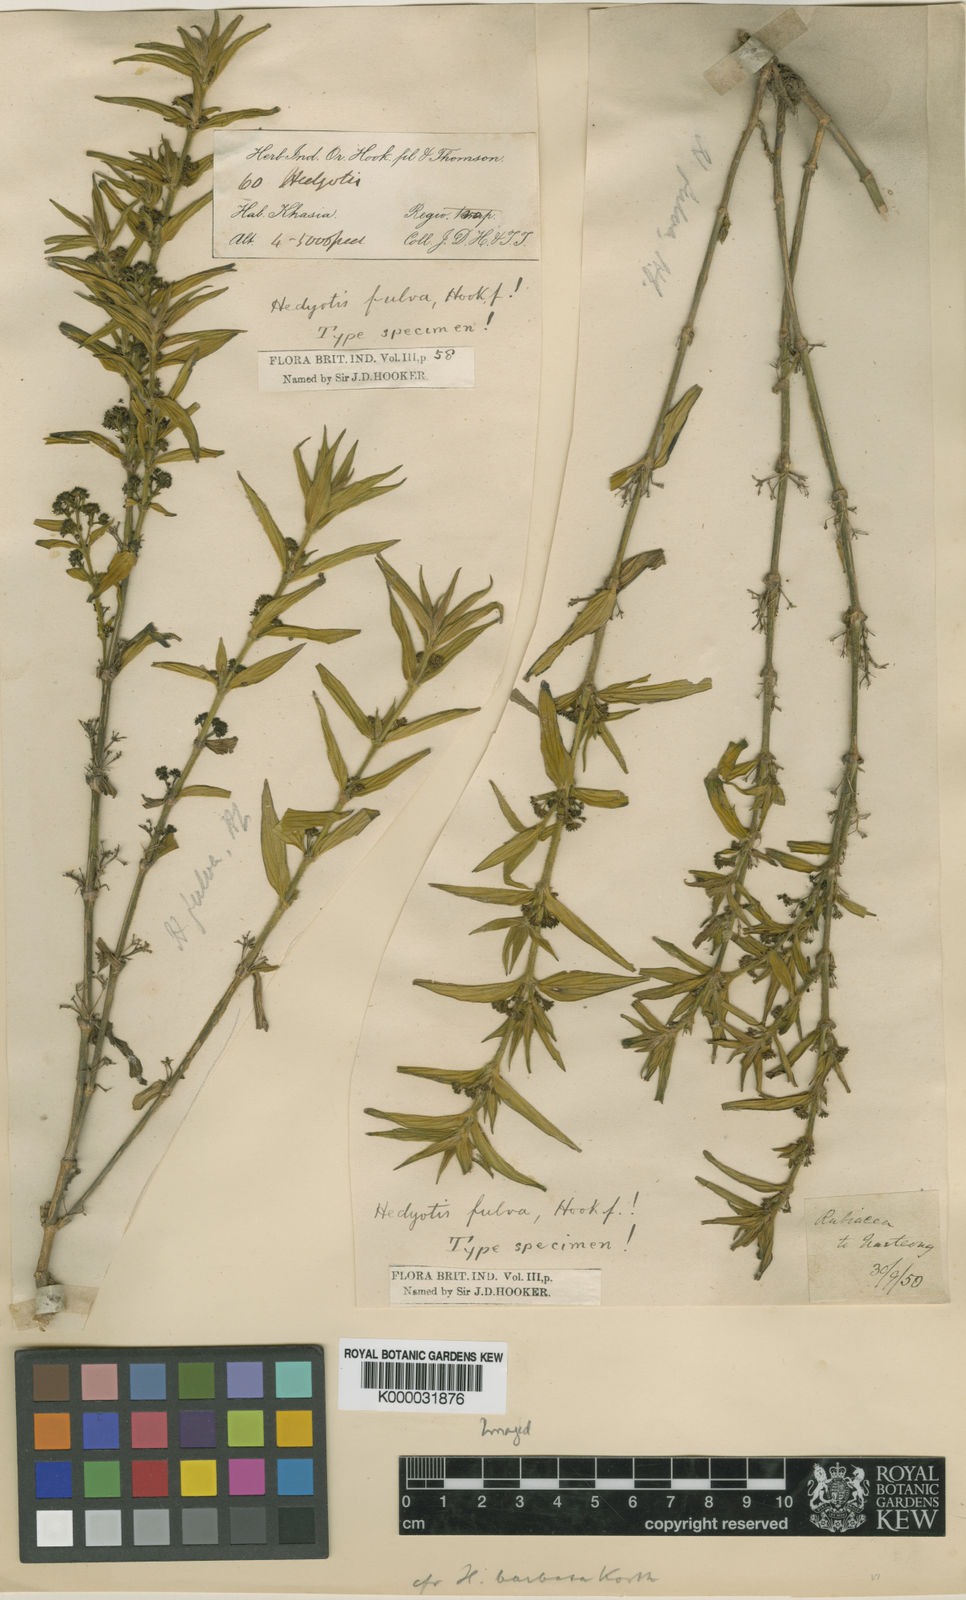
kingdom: Plantae
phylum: Tracheophyta
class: Magnoliopsida
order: Gentianales
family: Rubiaceae
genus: Exallage
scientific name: Exallage barbata
